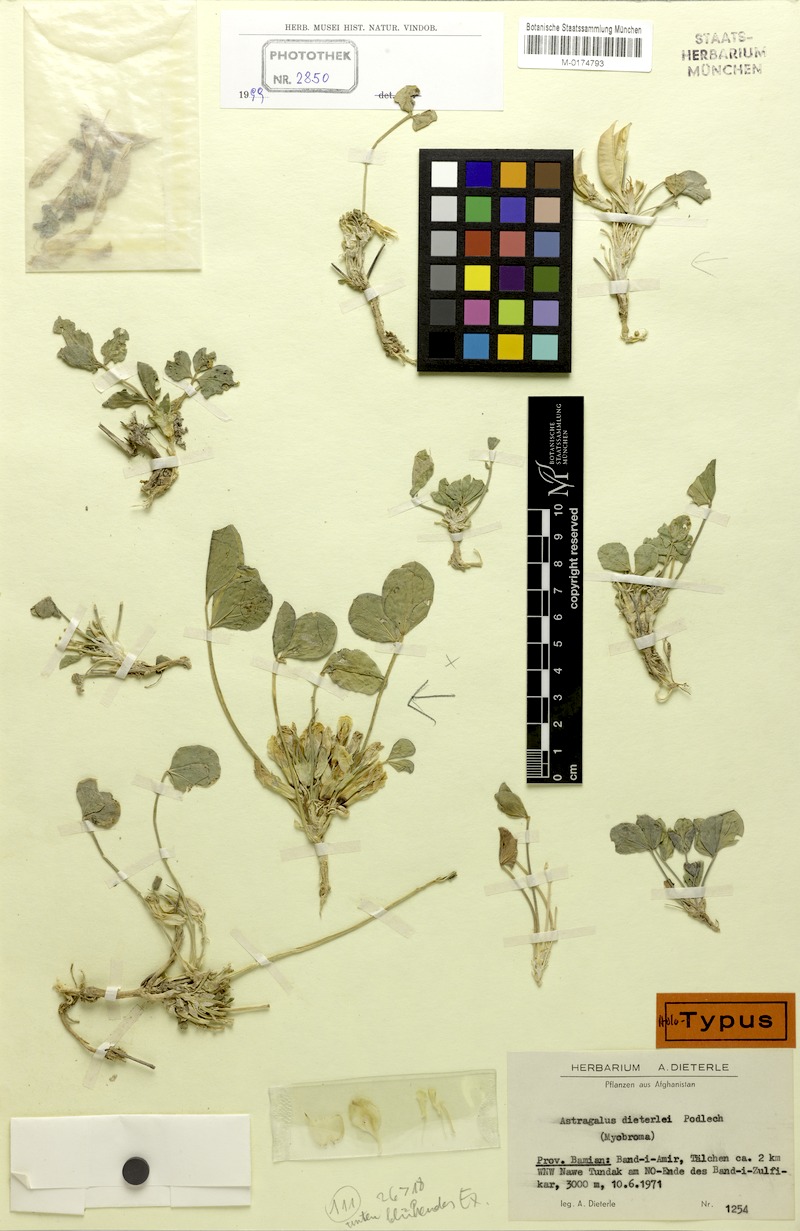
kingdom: Plantae
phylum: Tracheophyta
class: Magnoliopsida
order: Fabales
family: Fabaceae
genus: Astragalus
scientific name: Astragalus dieterlei
